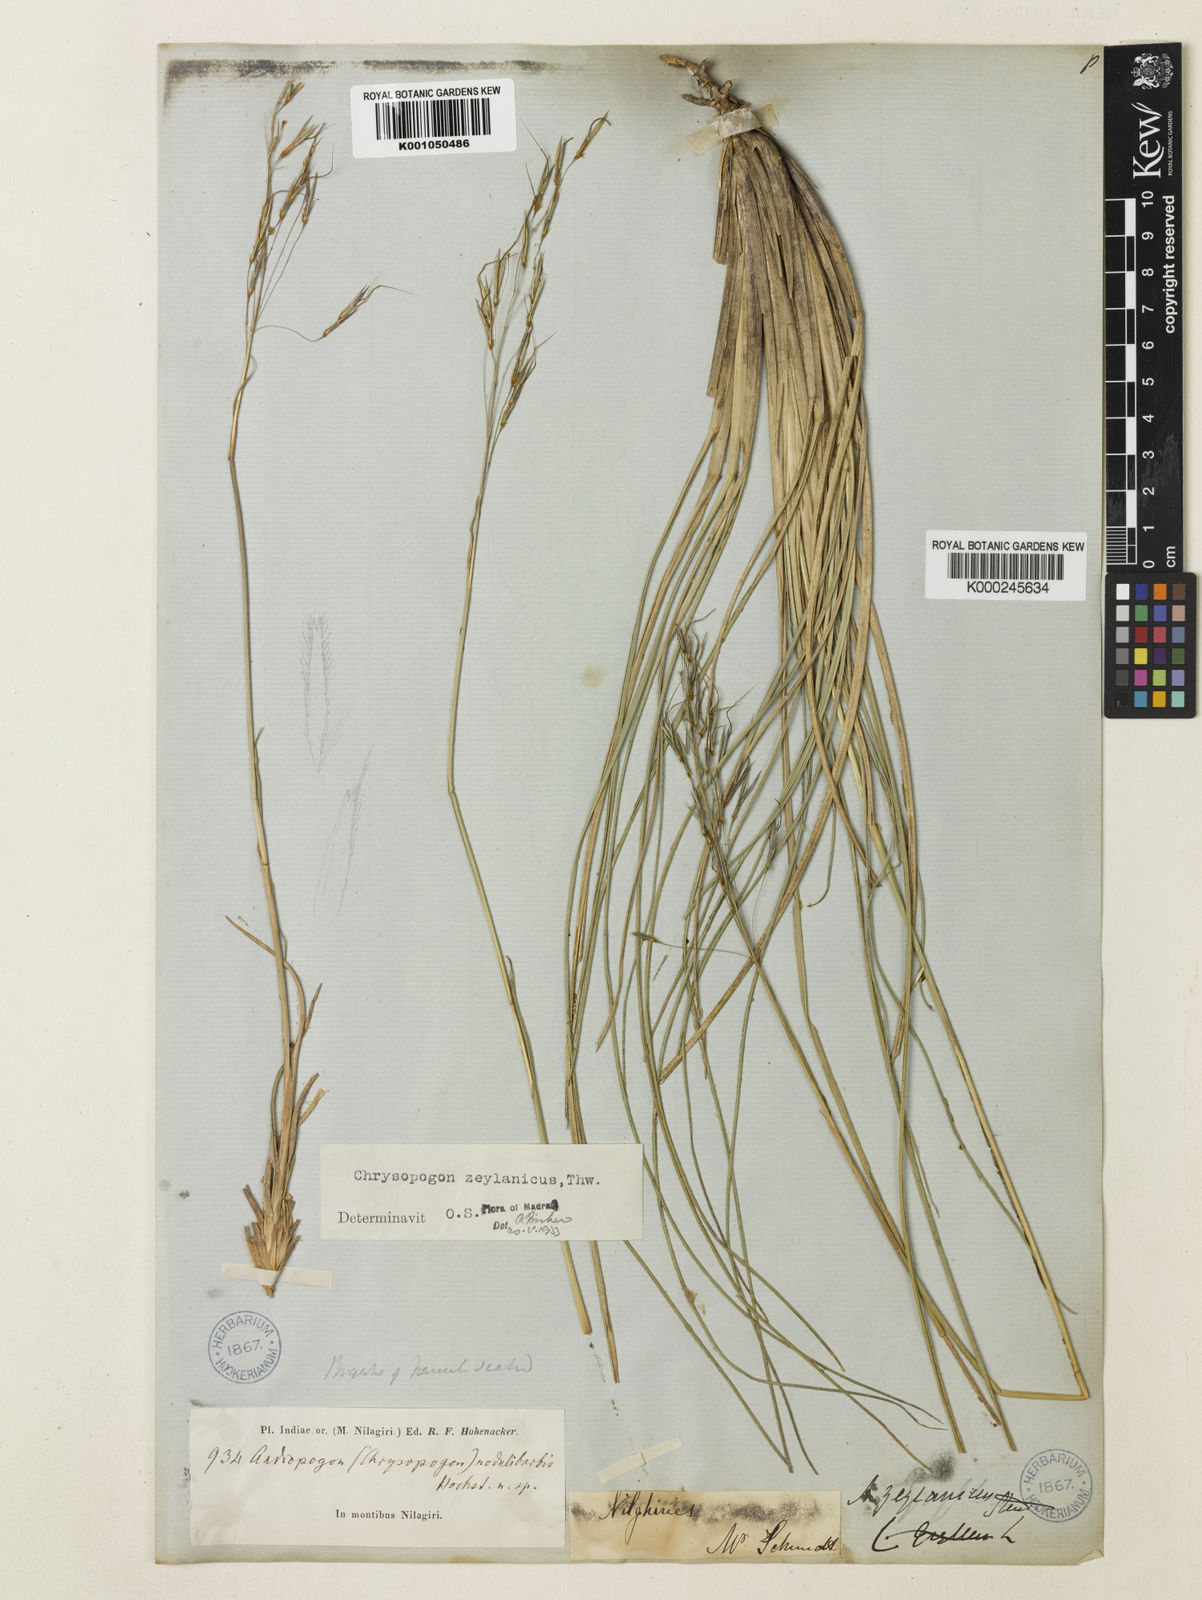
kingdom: Plantae
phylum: Tracheophyta
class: Liliopsida
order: Poales
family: Poaceae
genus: Chrysopogon
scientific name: Chrysopogon nodulibarbis
